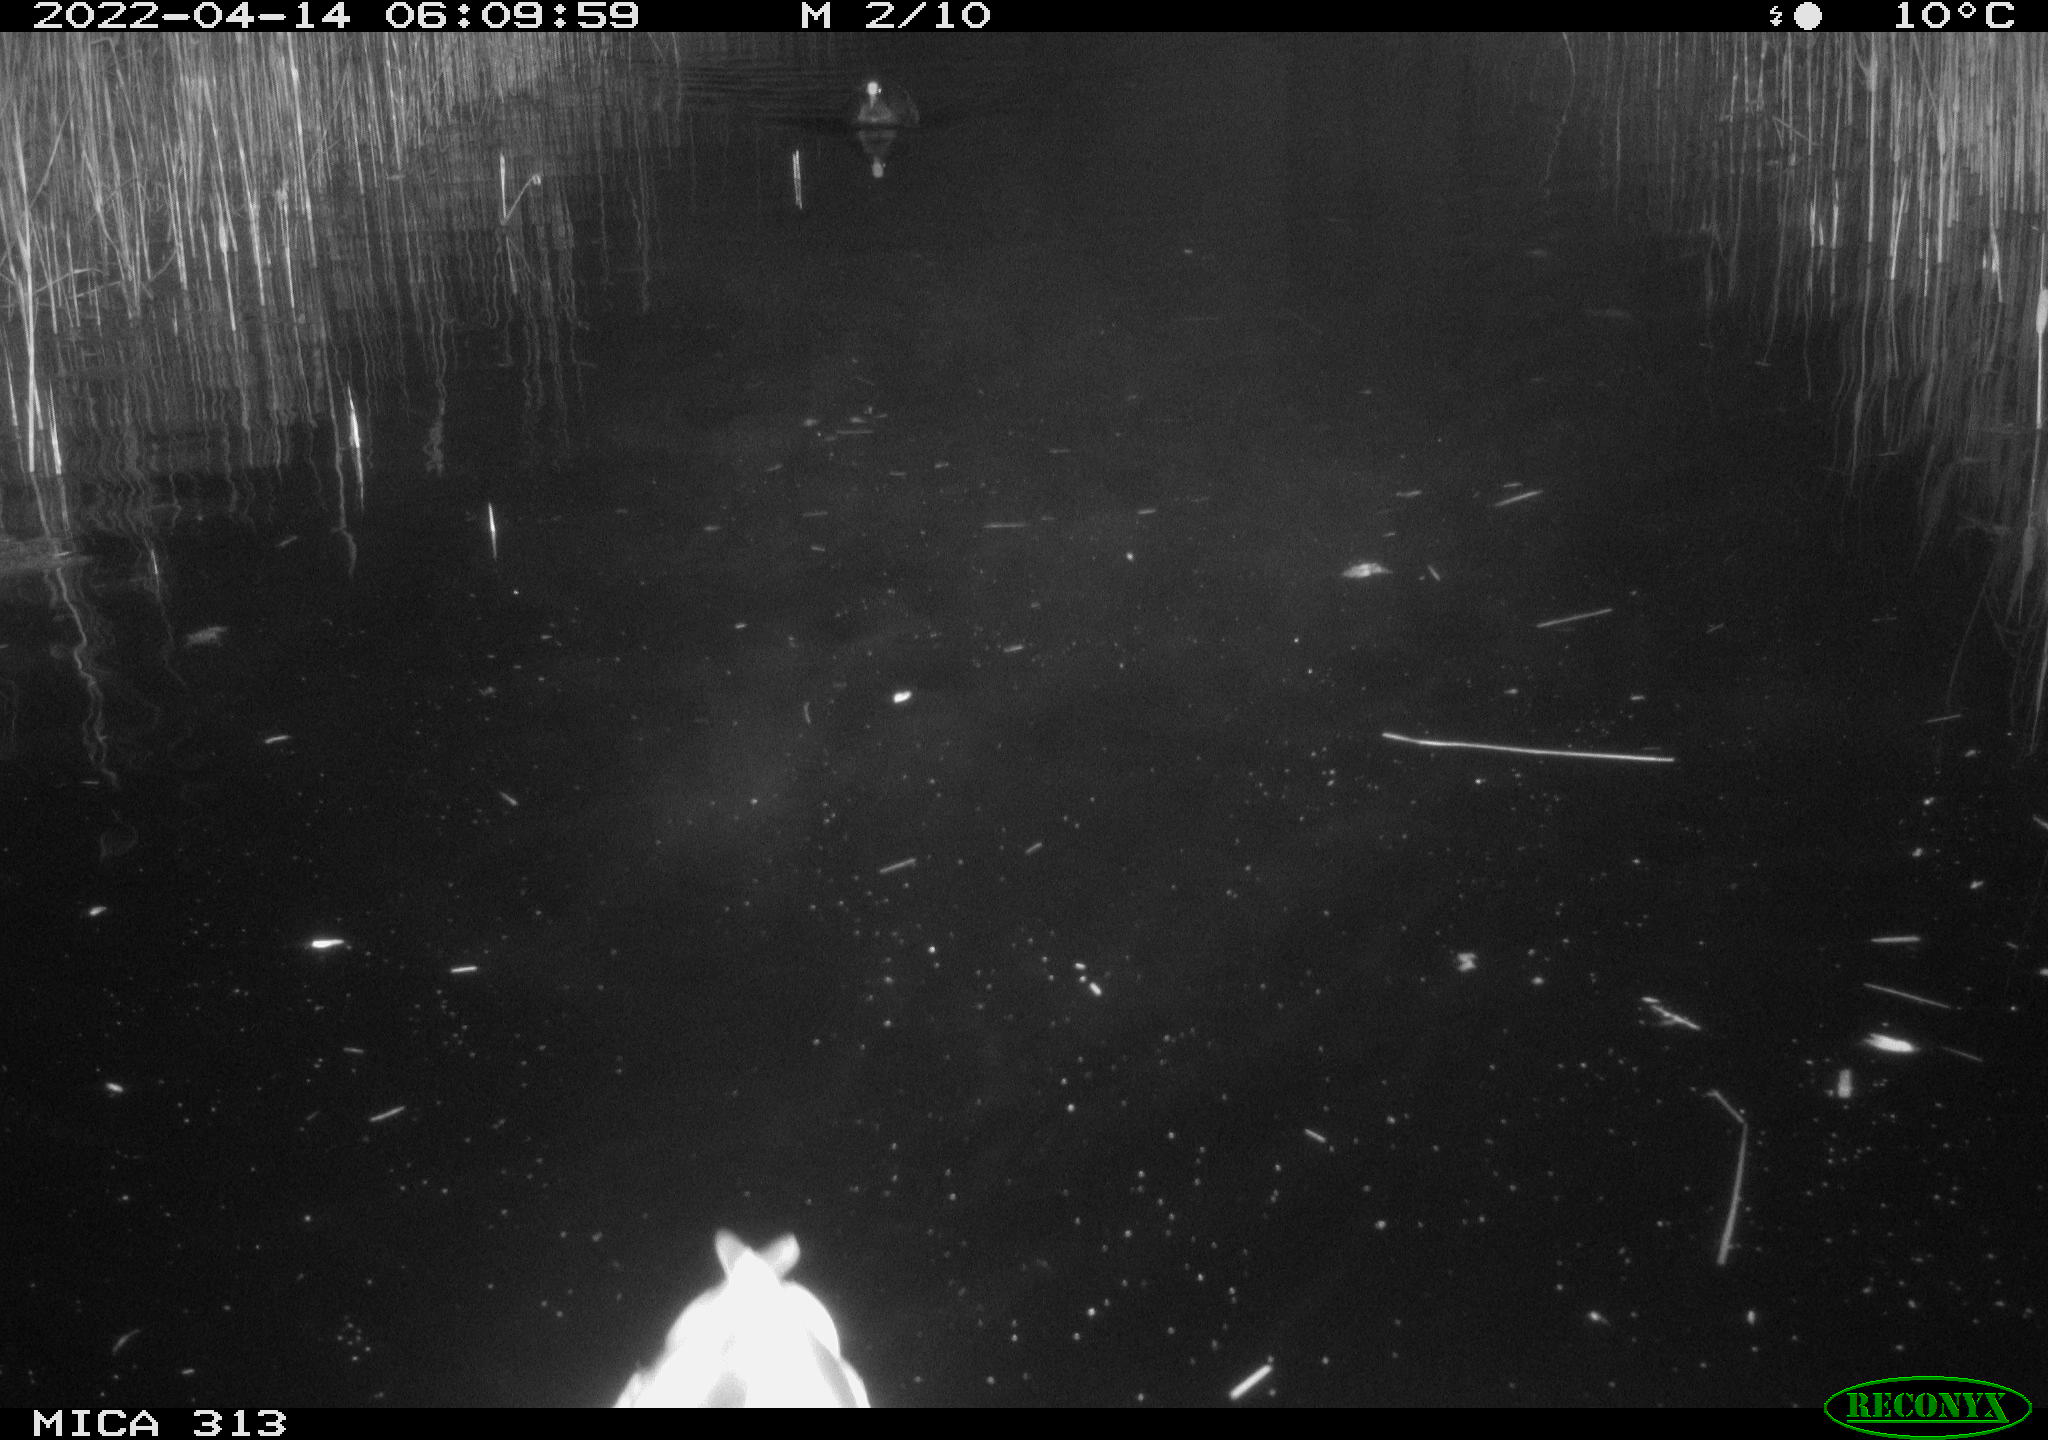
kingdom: Animalia
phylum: Chordata
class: Aves
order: Anseriformes
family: Anatidae
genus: Anas
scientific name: Anas platyrhynchos
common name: Mallard
